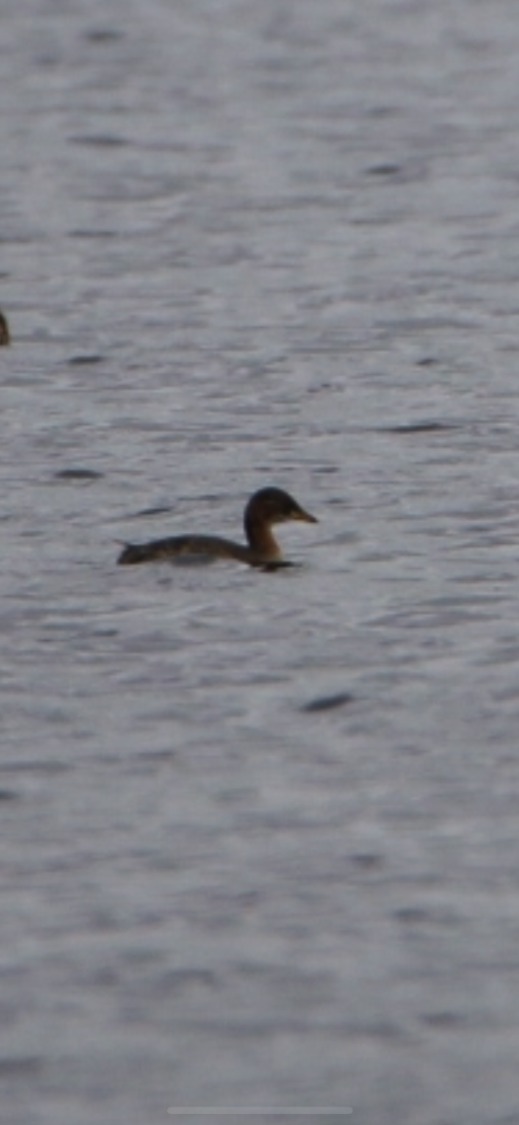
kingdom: Animalia
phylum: Chordata
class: Aves
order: Podicipediformes
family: Podicipedidae
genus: Podiceps
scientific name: Podiceps grisegena
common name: Gråstrubet lappedykker
